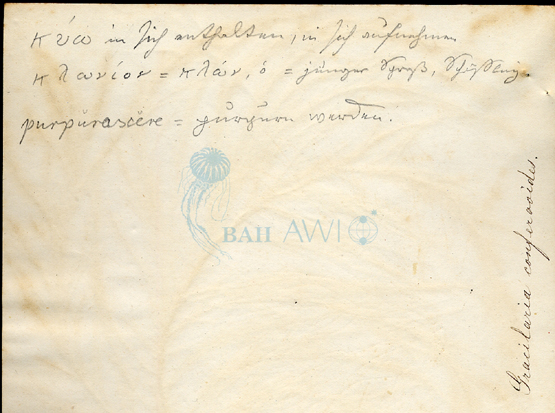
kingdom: Plantae
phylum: Rhodophyta
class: Florideophyceae
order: Gigartinales
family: Cystocloniaceae
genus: Cystoclonium
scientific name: Cystoclonium purpureum
